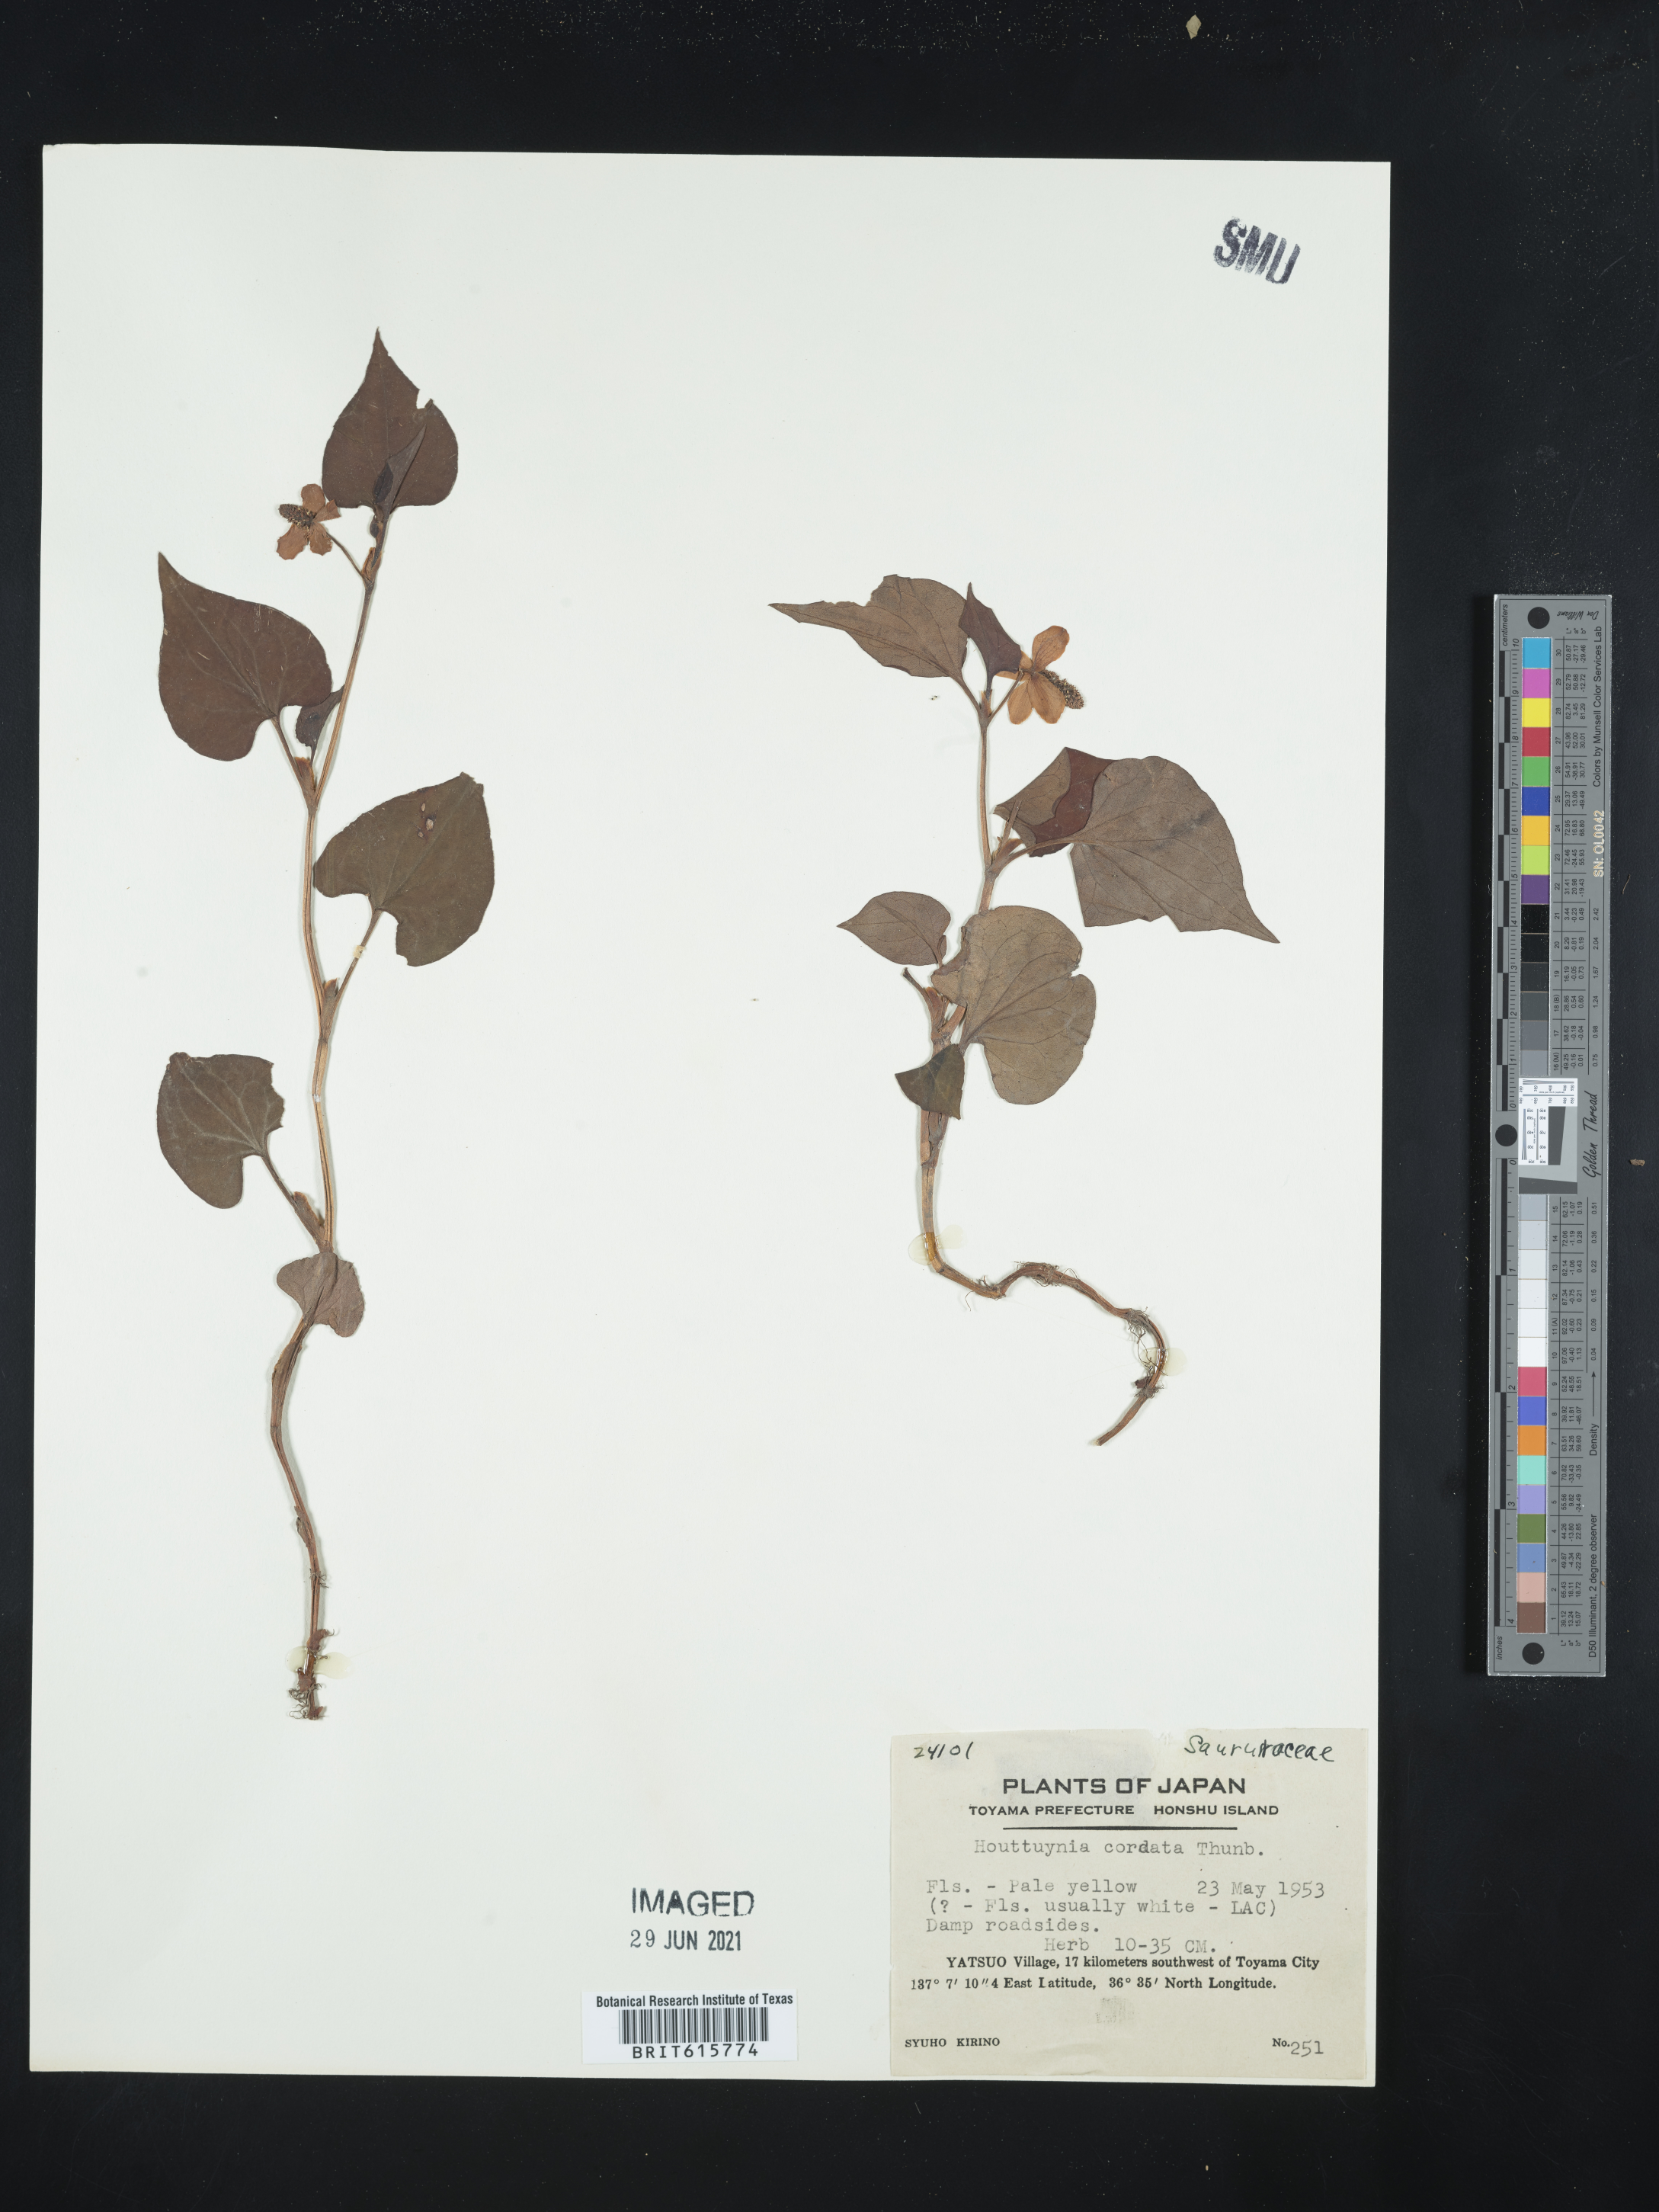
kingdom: Plantae
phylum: Tracheophyta
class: Magnoliopsida
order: Piperales
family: Saururaceae
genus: Houttuynia
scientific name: Houttuynia cordata
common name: Chameleon
